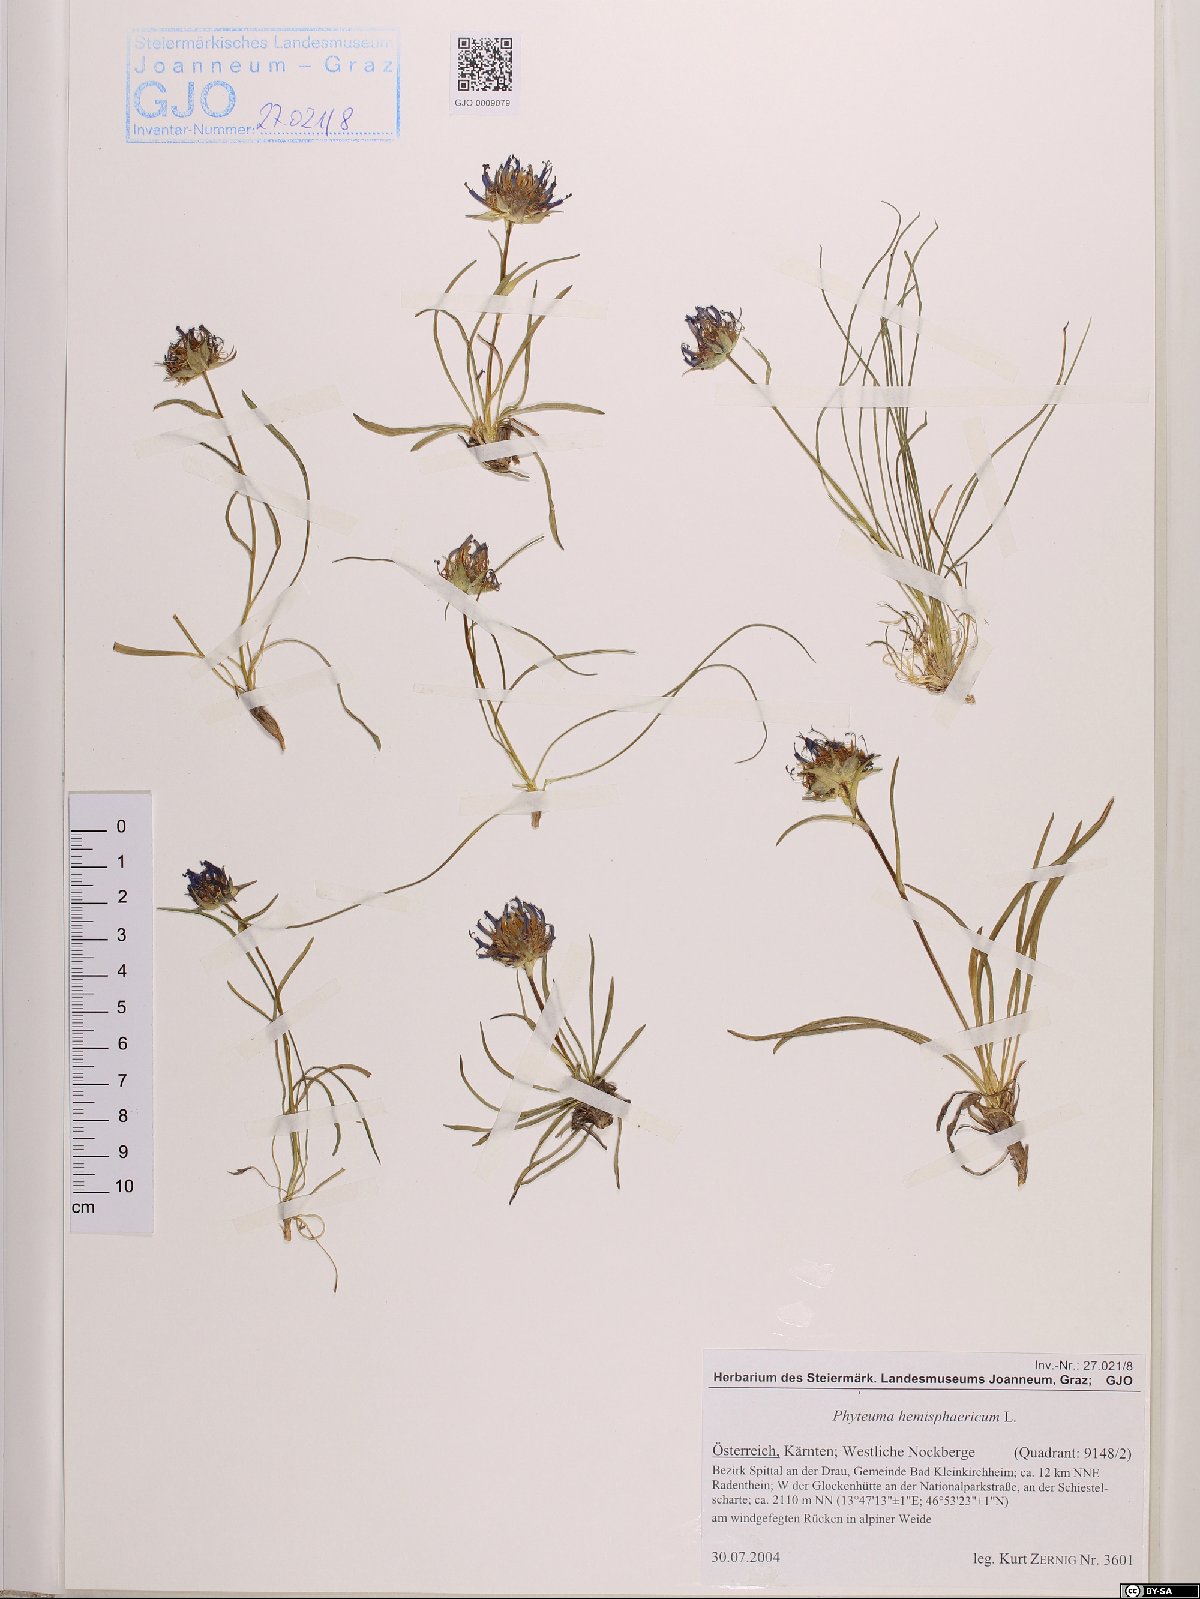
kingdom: Plantae
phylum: Tracheophyta
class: Magnoliopsida
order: Asterales
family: Campanulaceae
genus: Phyteuma
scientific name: Phyteuma hemisphaericum
